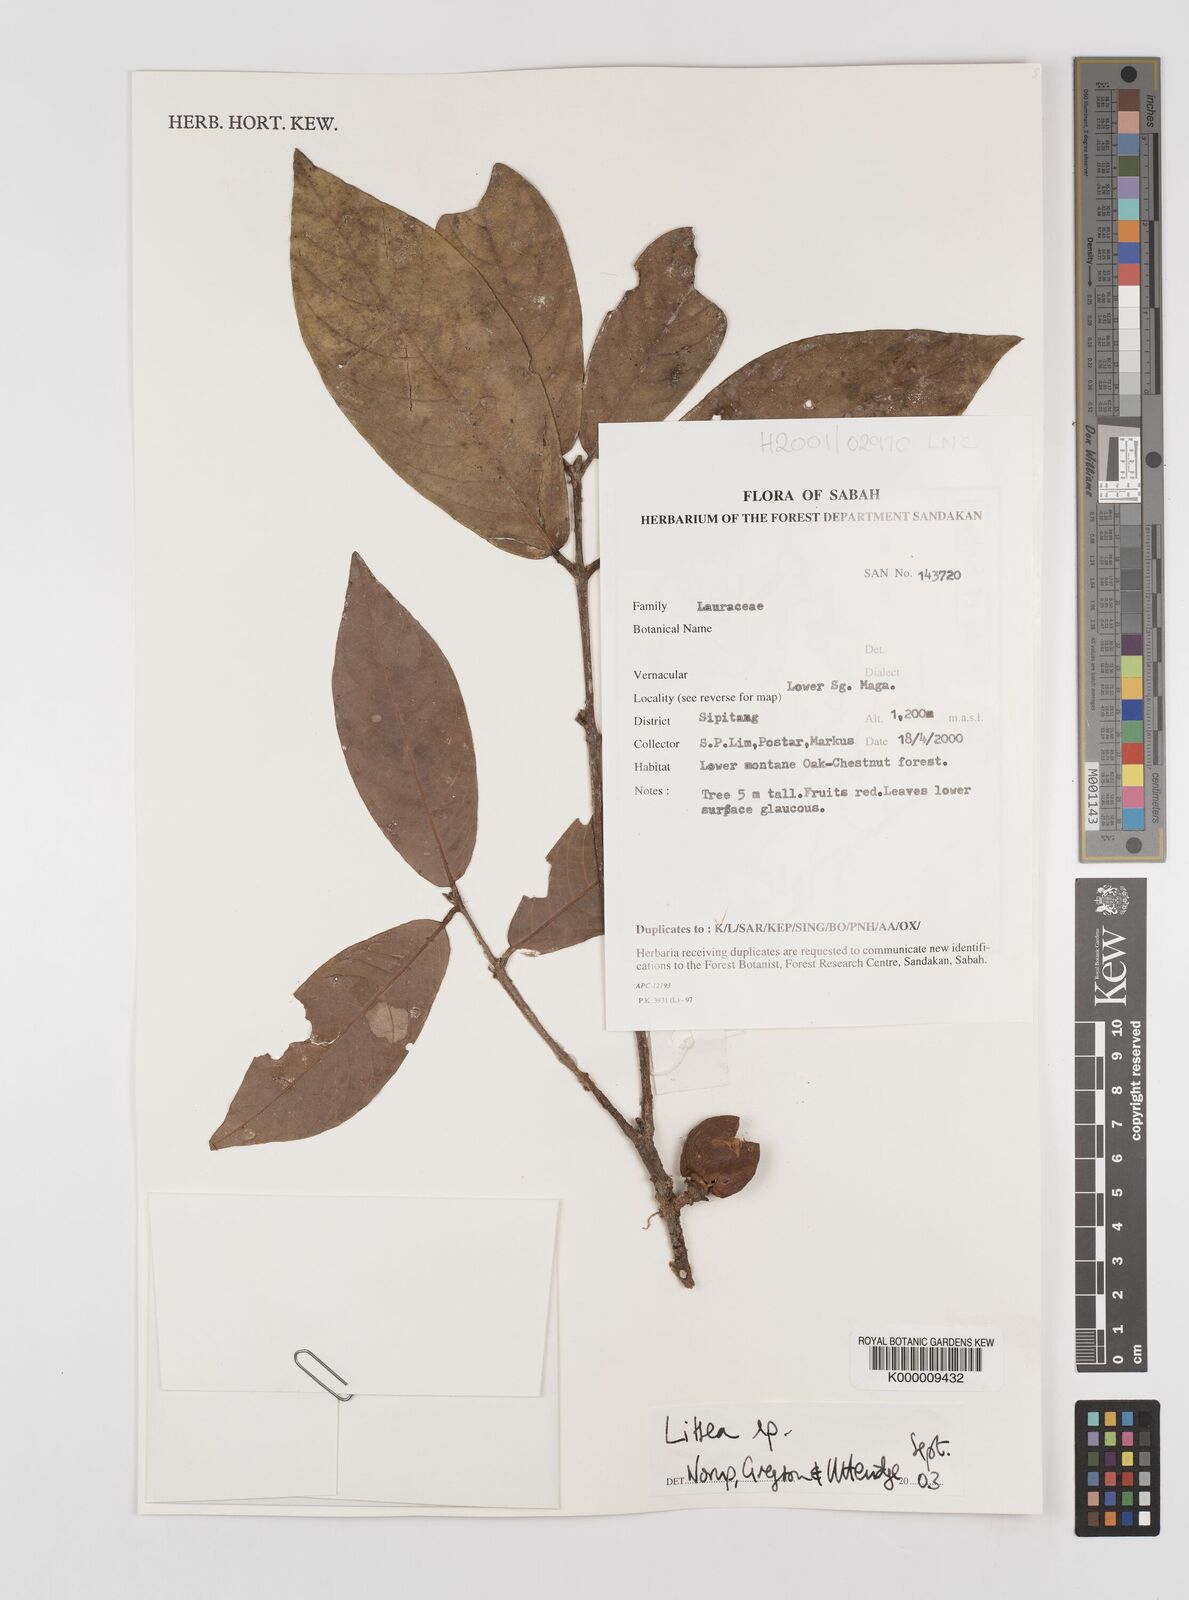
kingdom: Plantae
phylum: Tracheophyta
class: Magnoliopsida
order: Laurales
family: Lauraceae
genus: Litsea
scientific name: Litsea
